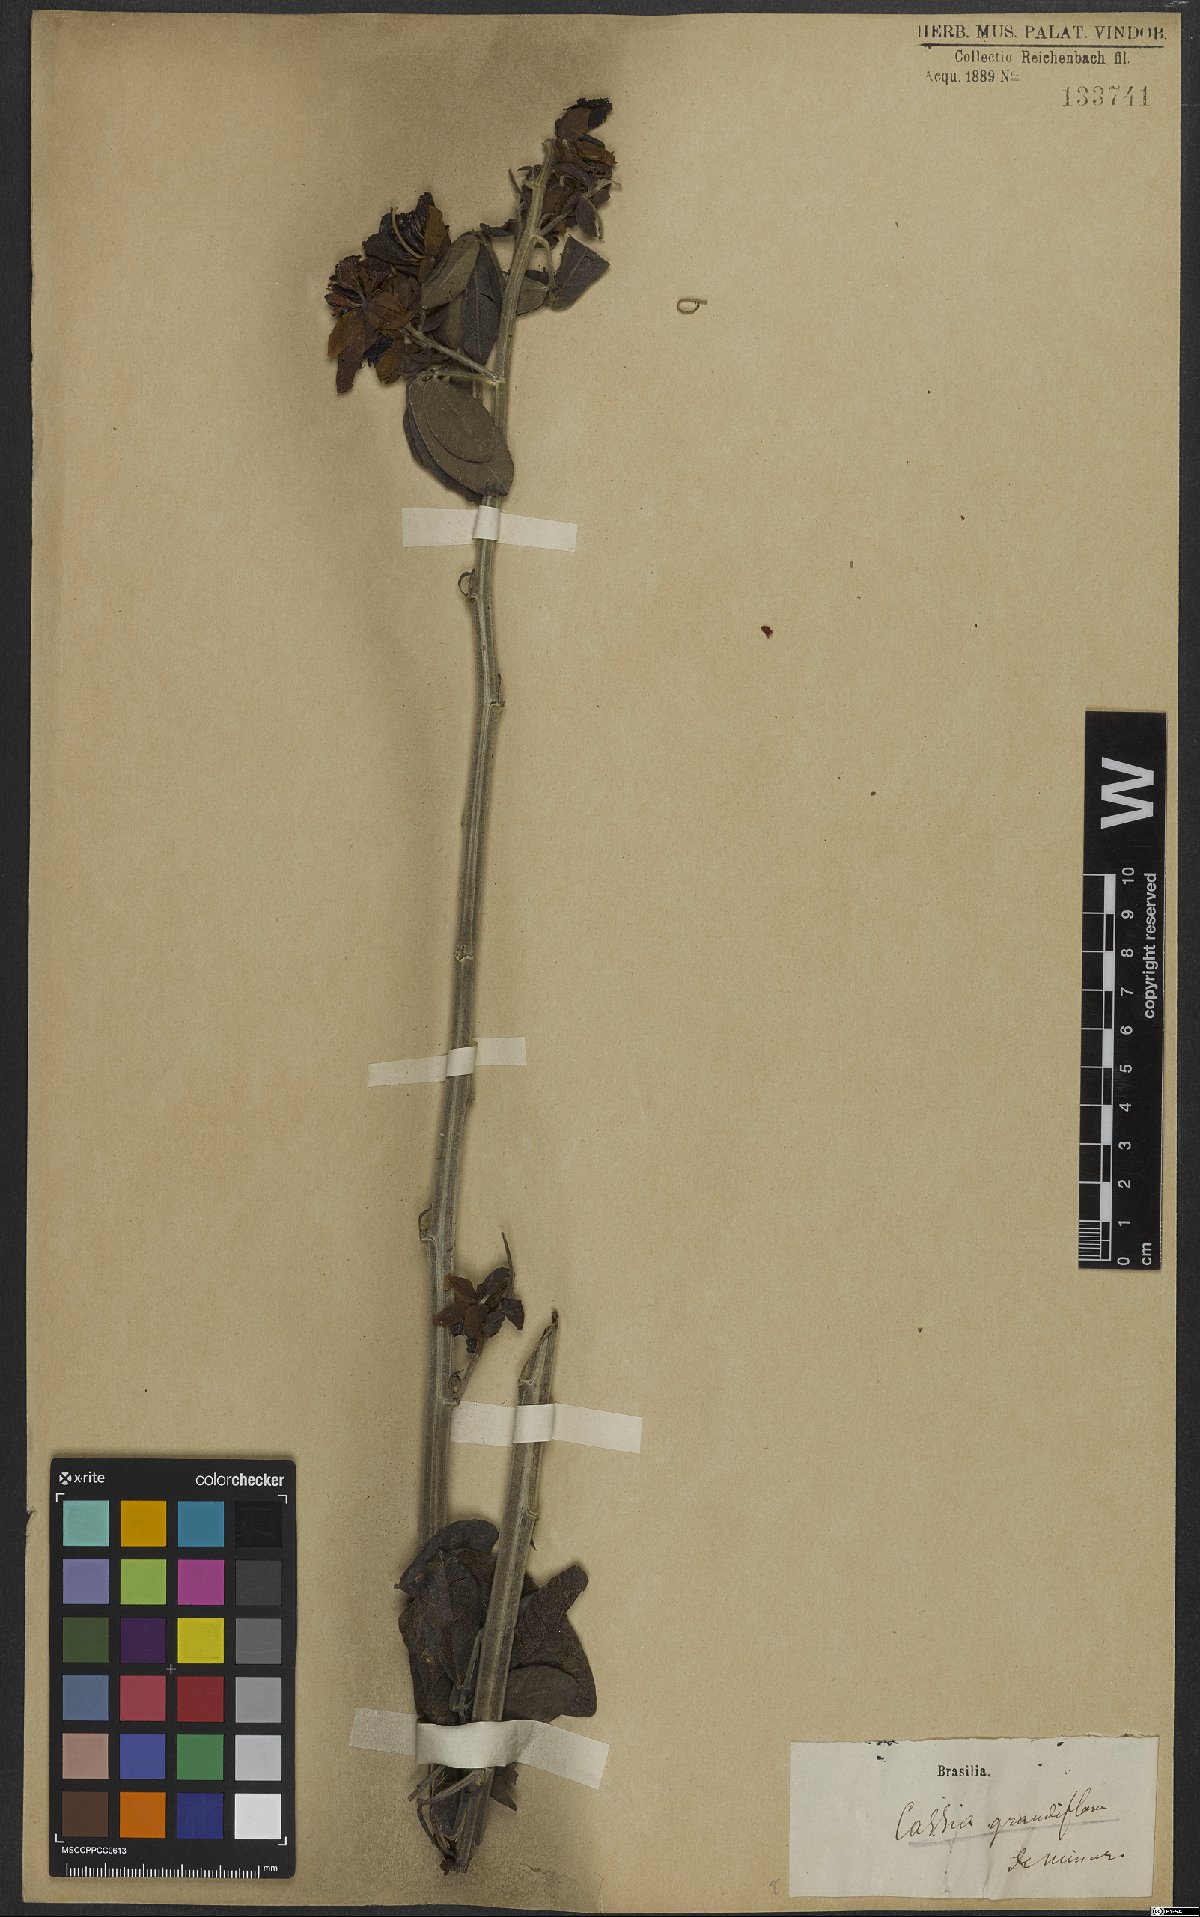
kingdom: Plantae
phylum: Tracheophyta
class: Magnoliopsida
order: Fabales
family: Fabaceae
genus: Senna
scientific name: Senna septemtrionalis
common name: Arsenic bush
